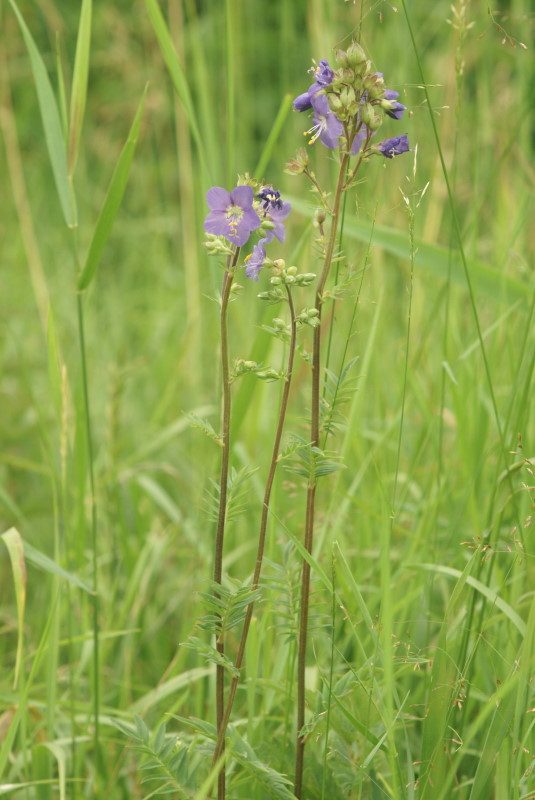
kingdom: Plantae
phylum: Tracheophyta
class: Magnoliopsida
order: Ericales
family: Polemoniaceae
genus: Polemonium
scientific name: Polemonium caeruleum
